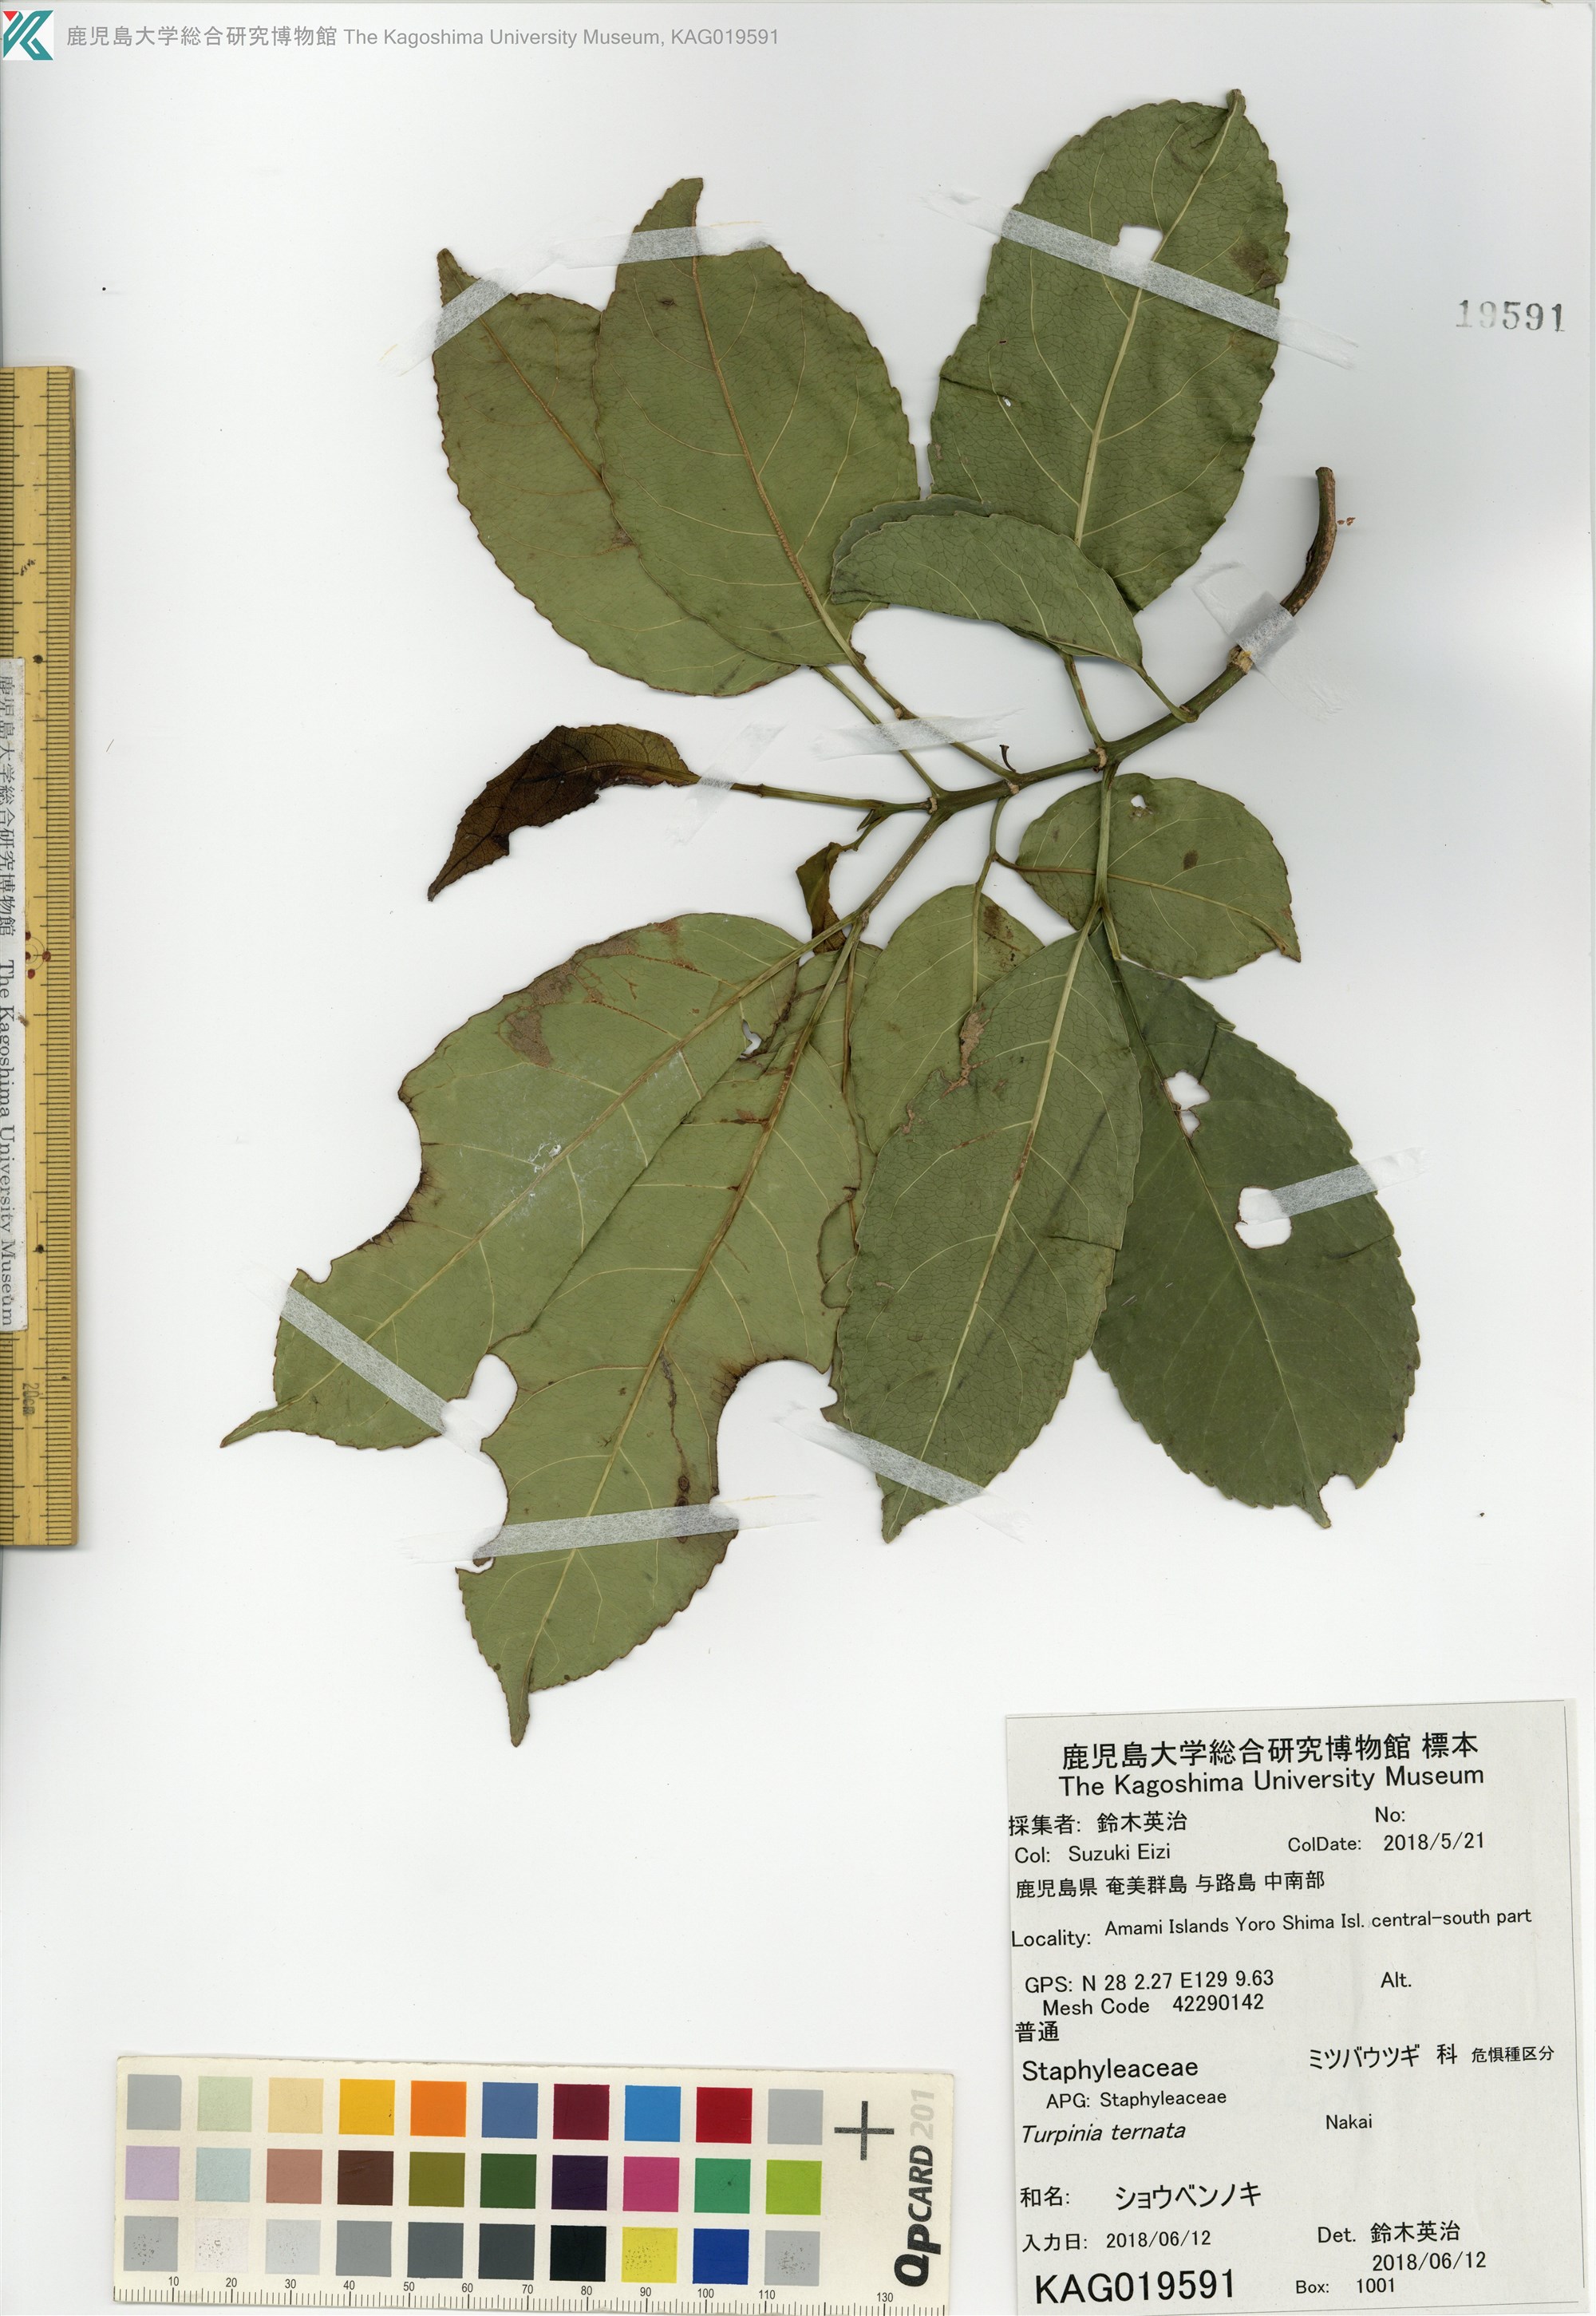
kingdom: Plantae
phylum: Tracheophyta
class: Magnoliopsida
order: Crossosomatales
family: Staphyleaceae
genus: Turpinia
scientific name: Turpinia ternata
